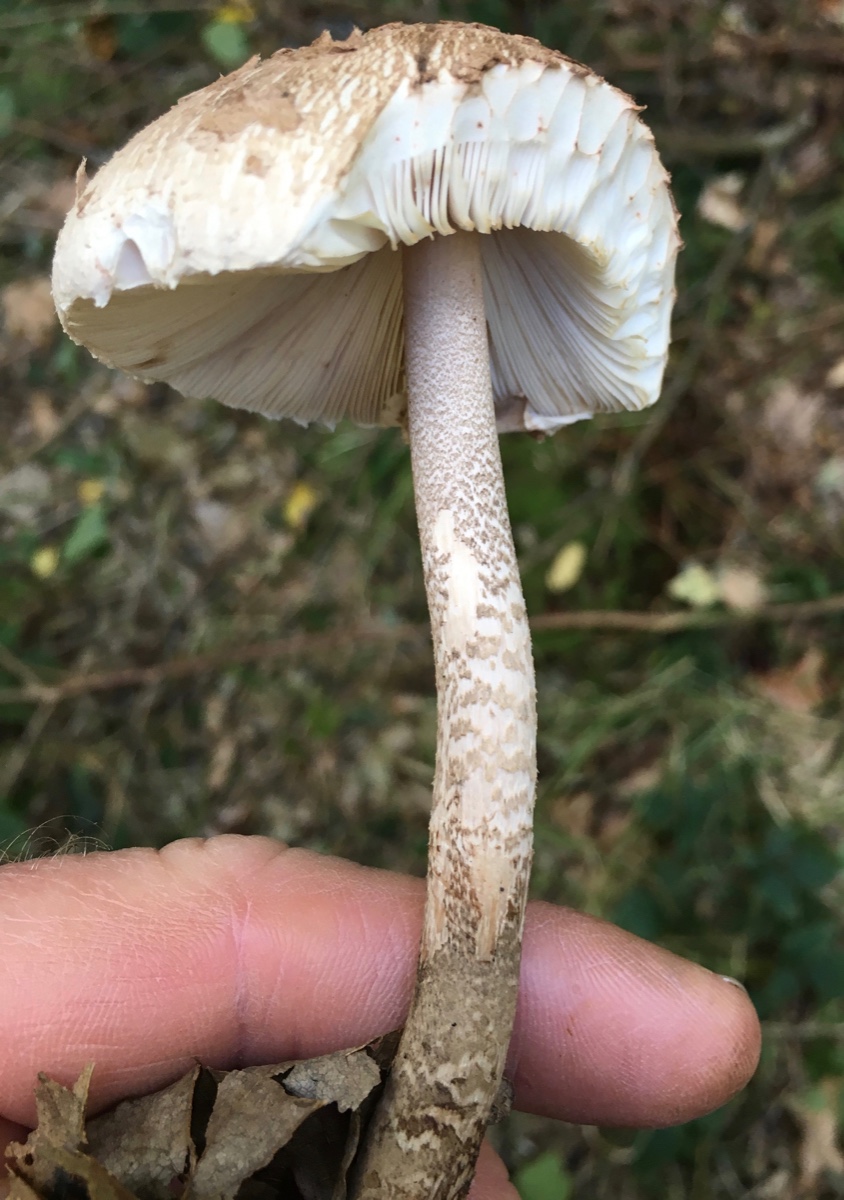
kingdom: Fungi
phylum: Basidiomycota
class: Agaricomycetes
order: Agaricales
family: Agaricaceae
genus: Macrolepiota
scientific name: Macrolepiota procera
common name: stor kæmpeparasolhat
